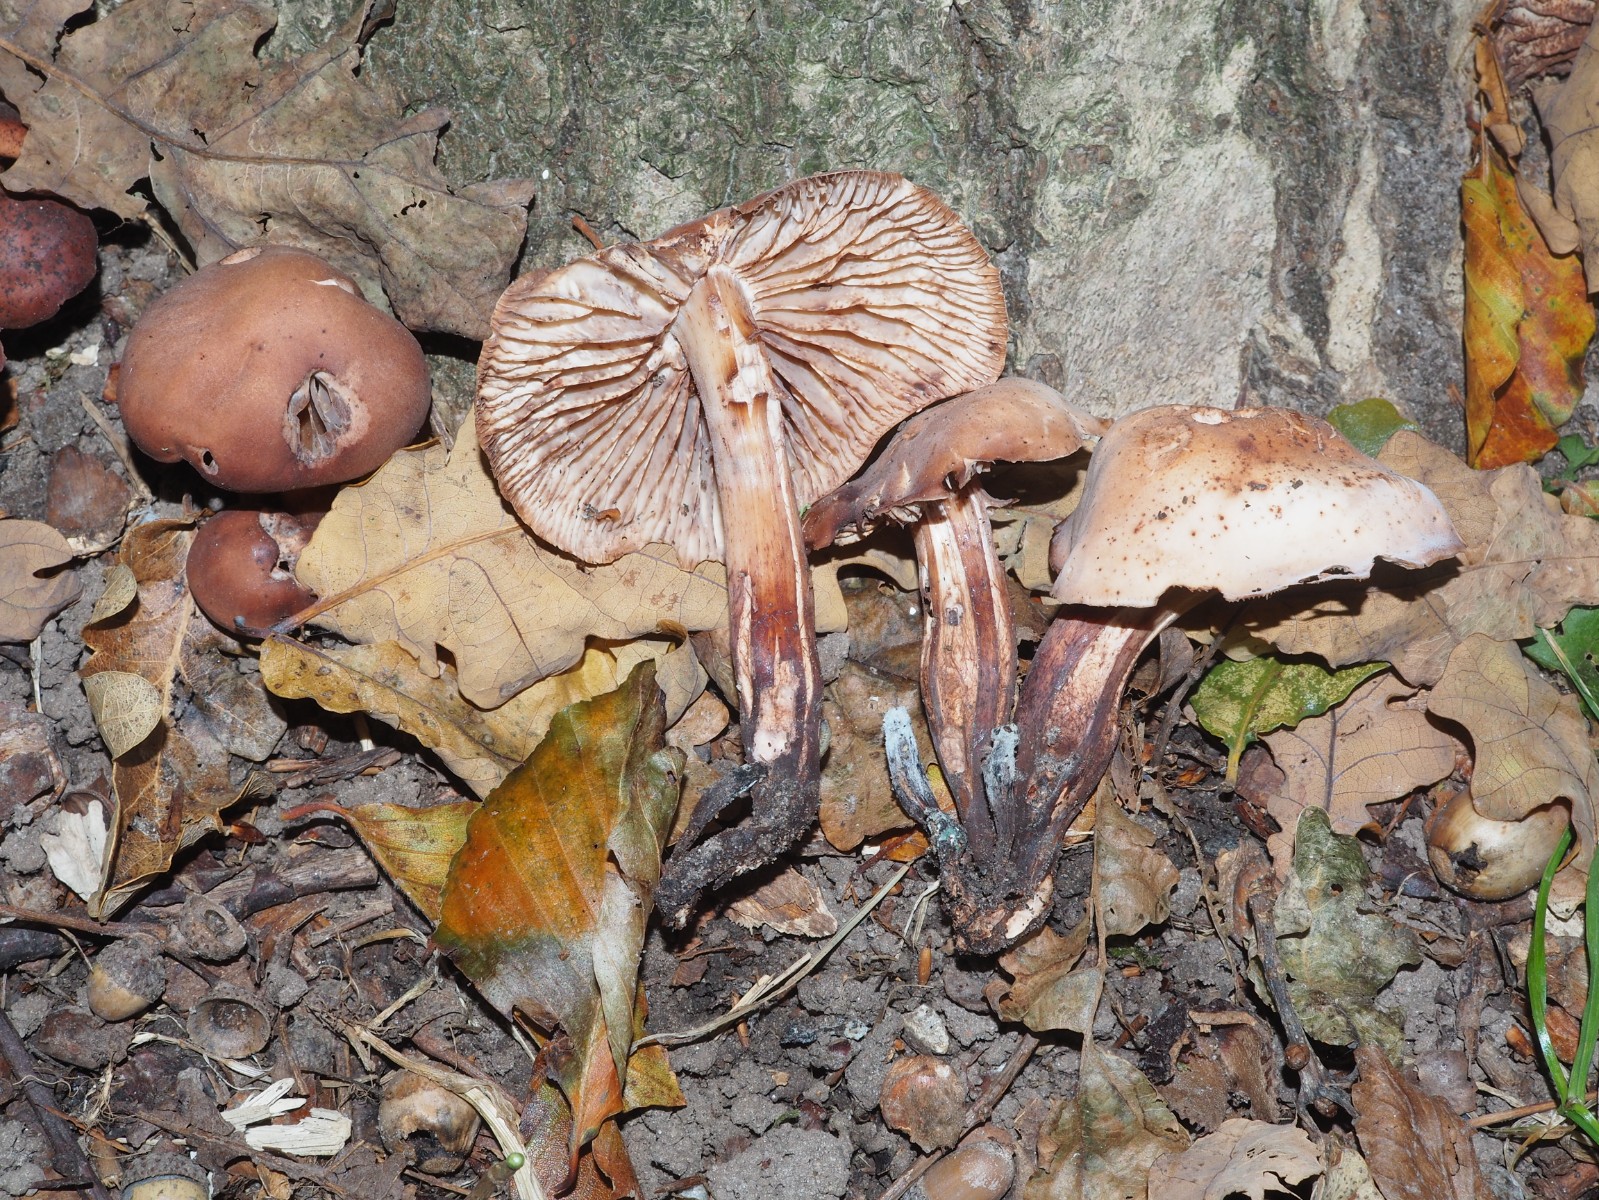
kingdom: Fungi
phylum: Basidiomycota
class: Agaricomycetes
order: Agaricales
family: Omphalotaceae
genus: Gymnopus
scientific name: Gymnopus fusipes
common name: tenstokket fladhat
